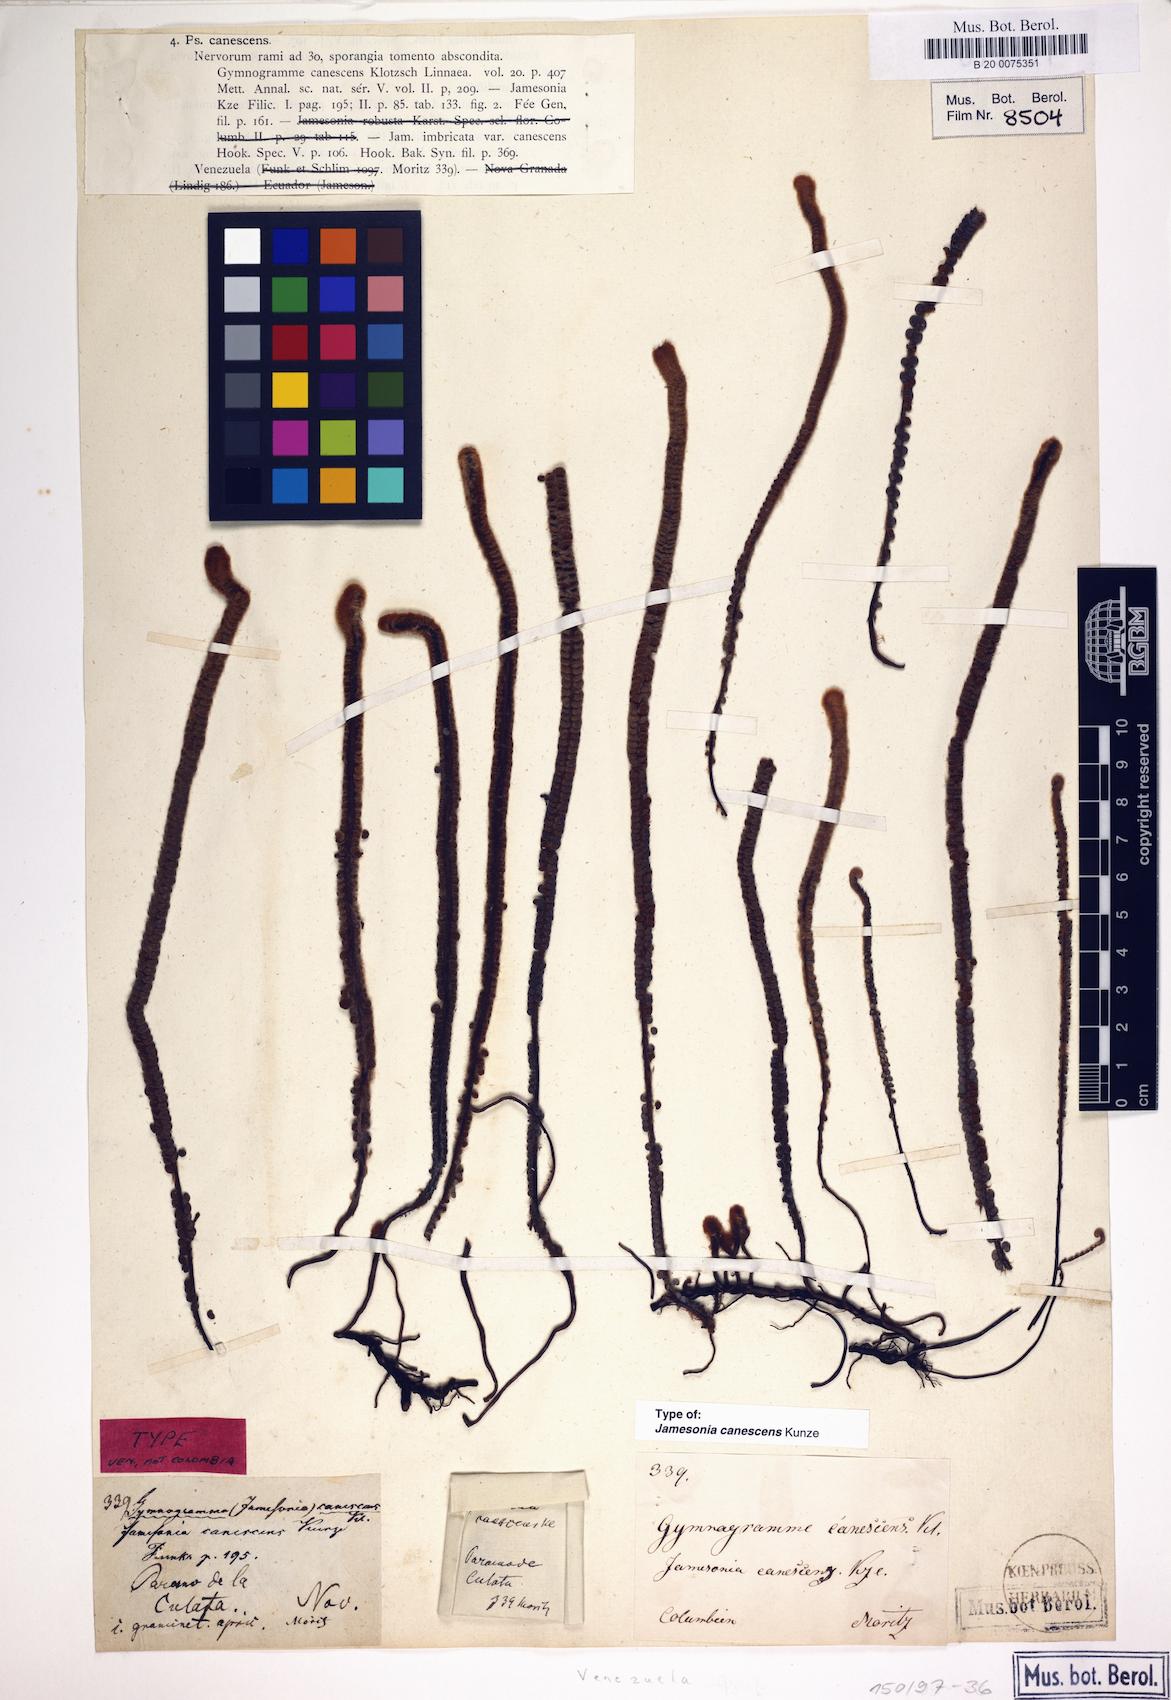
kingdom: Plantae
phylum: Tracheophyta
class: Polypodiopsida
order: Polypodiales
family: Pteridaceae
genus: Jamesonia
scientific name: Jamesonia canescens
